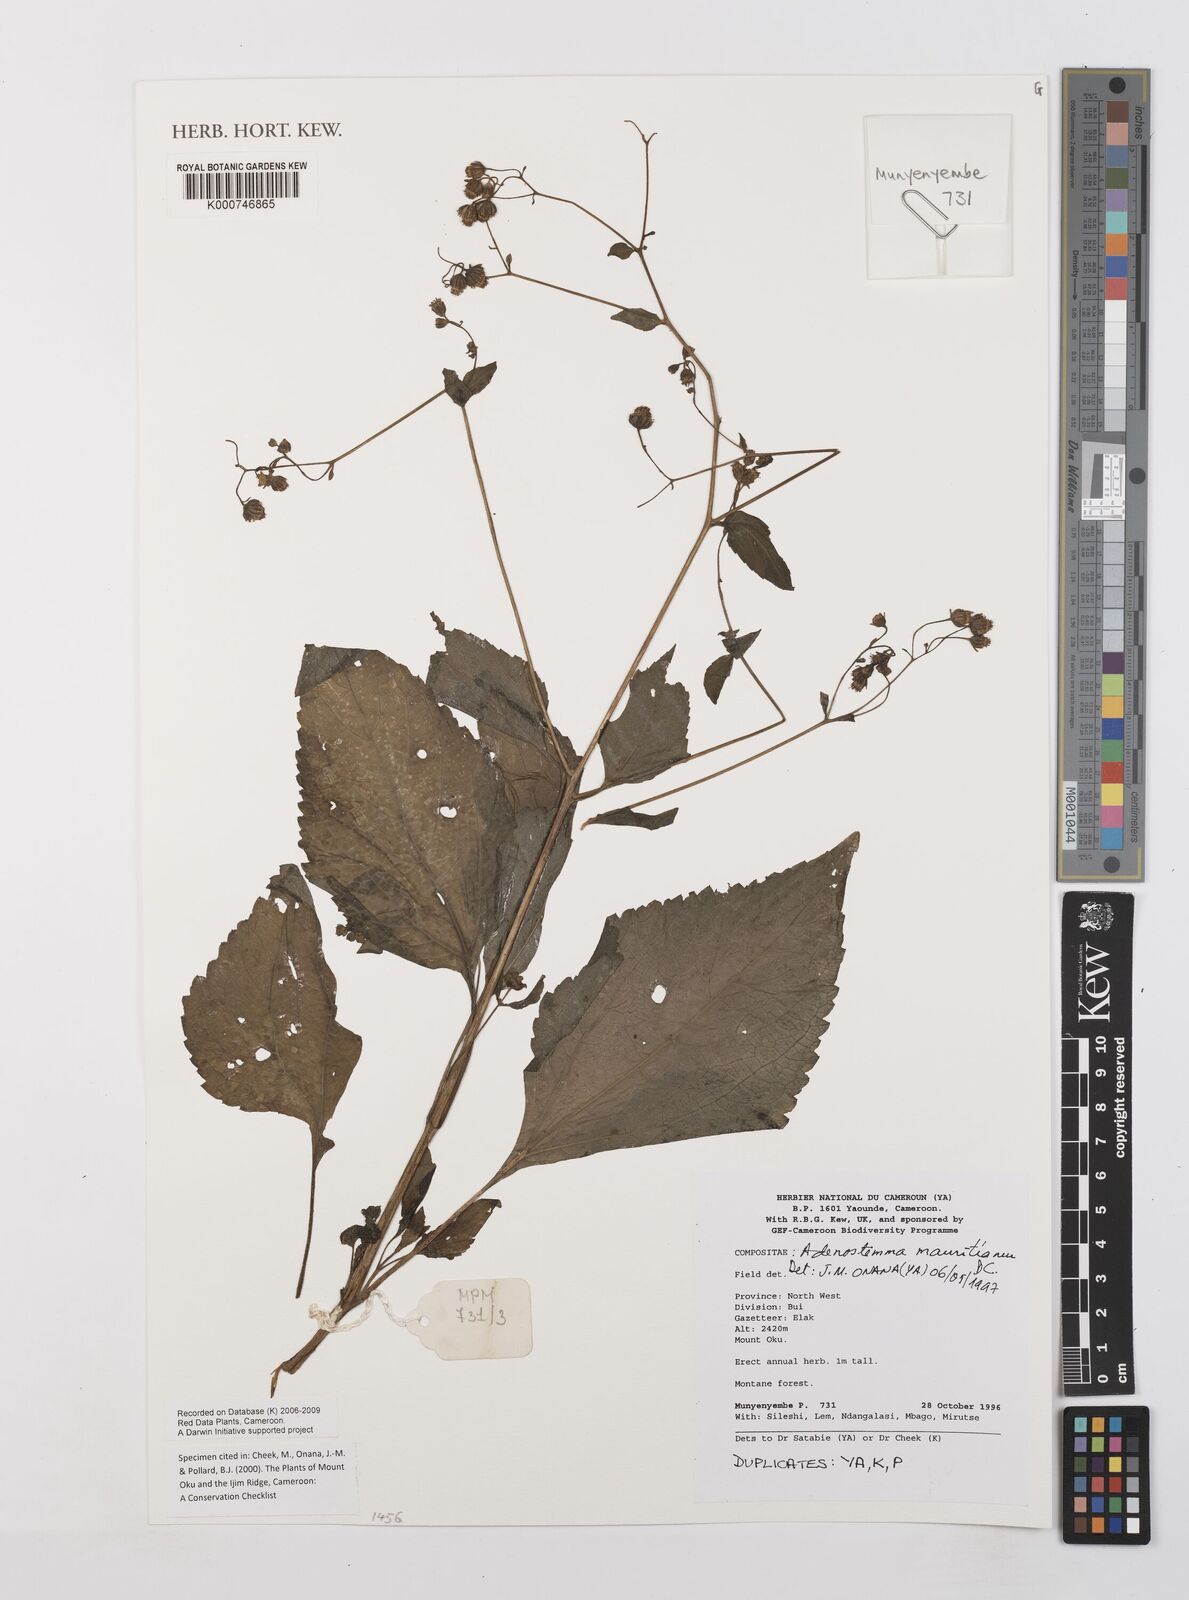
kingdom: Plantae
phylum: Tracheophyta
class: Magnoliopsida
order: Asterales
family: Asteraceae
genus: Adenostemma
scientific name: Adenostemma mauritianum
